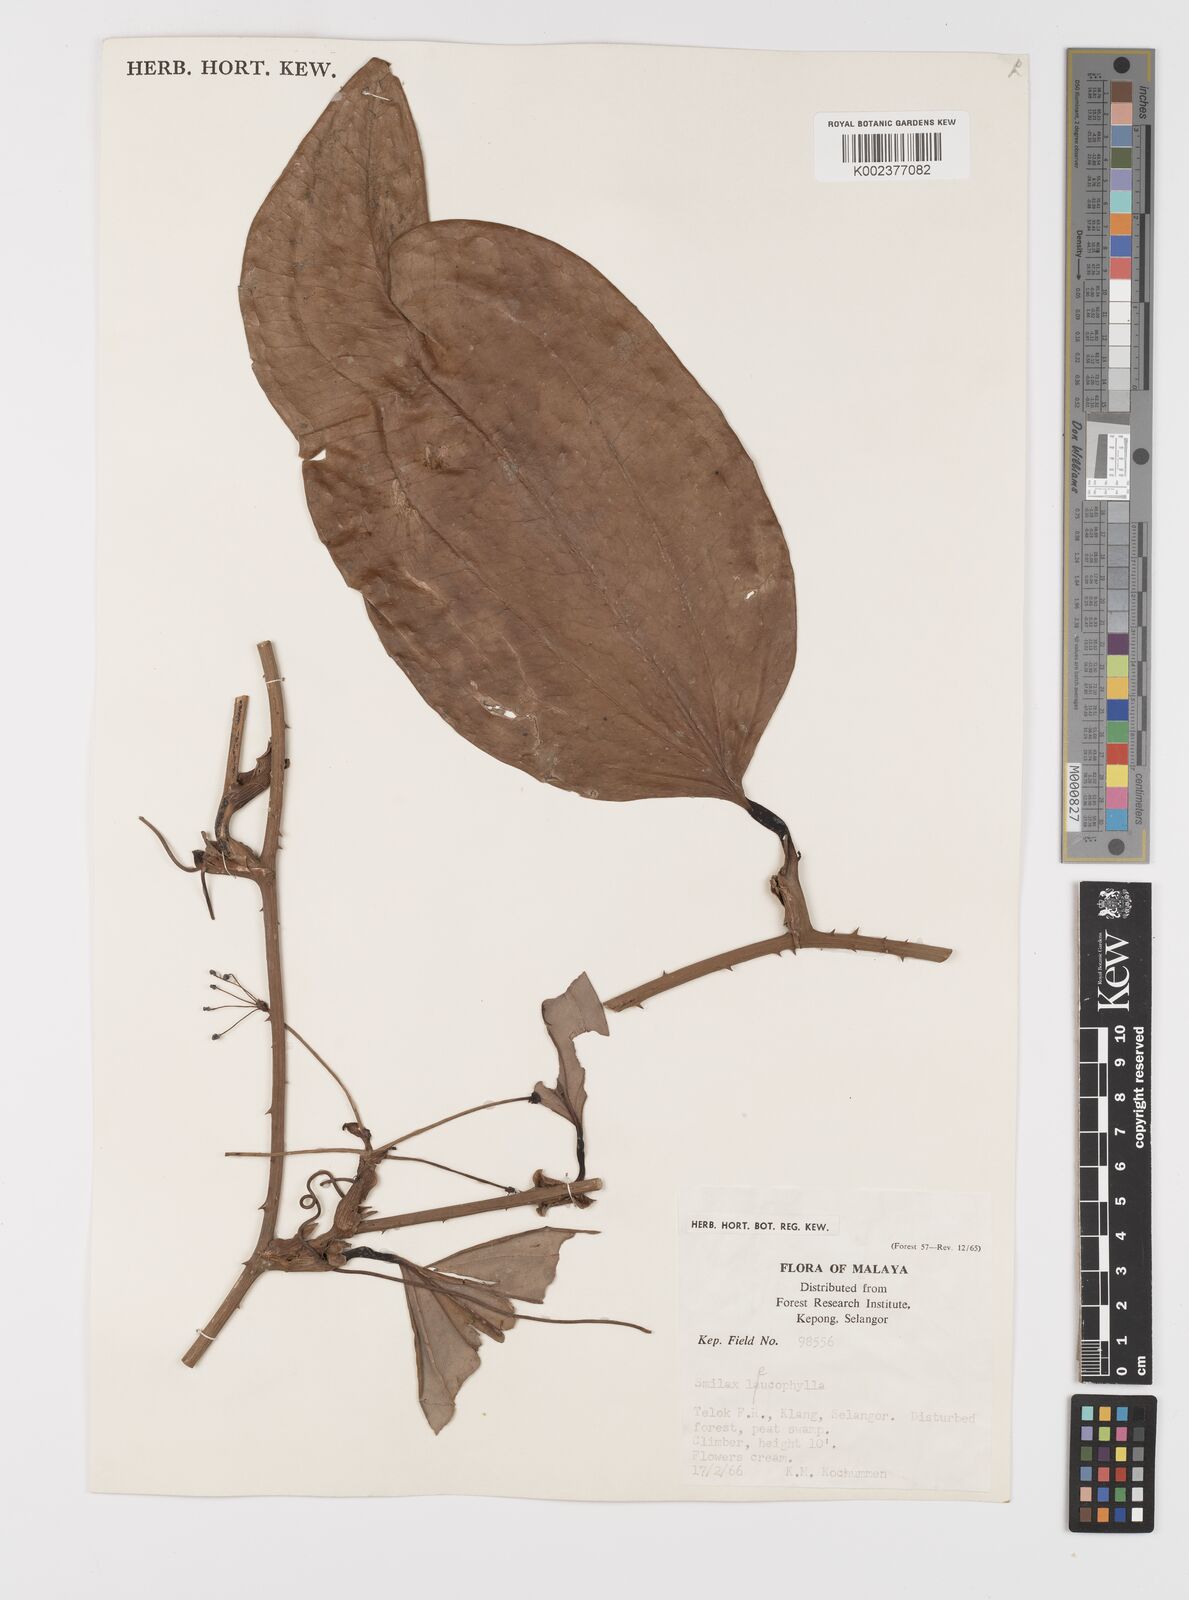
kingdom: Plantae
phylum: Tracheophyta
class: Liliopsida
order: Liliales
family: Smilacaceae
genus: Smilax
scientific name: Smilax leucophylla
